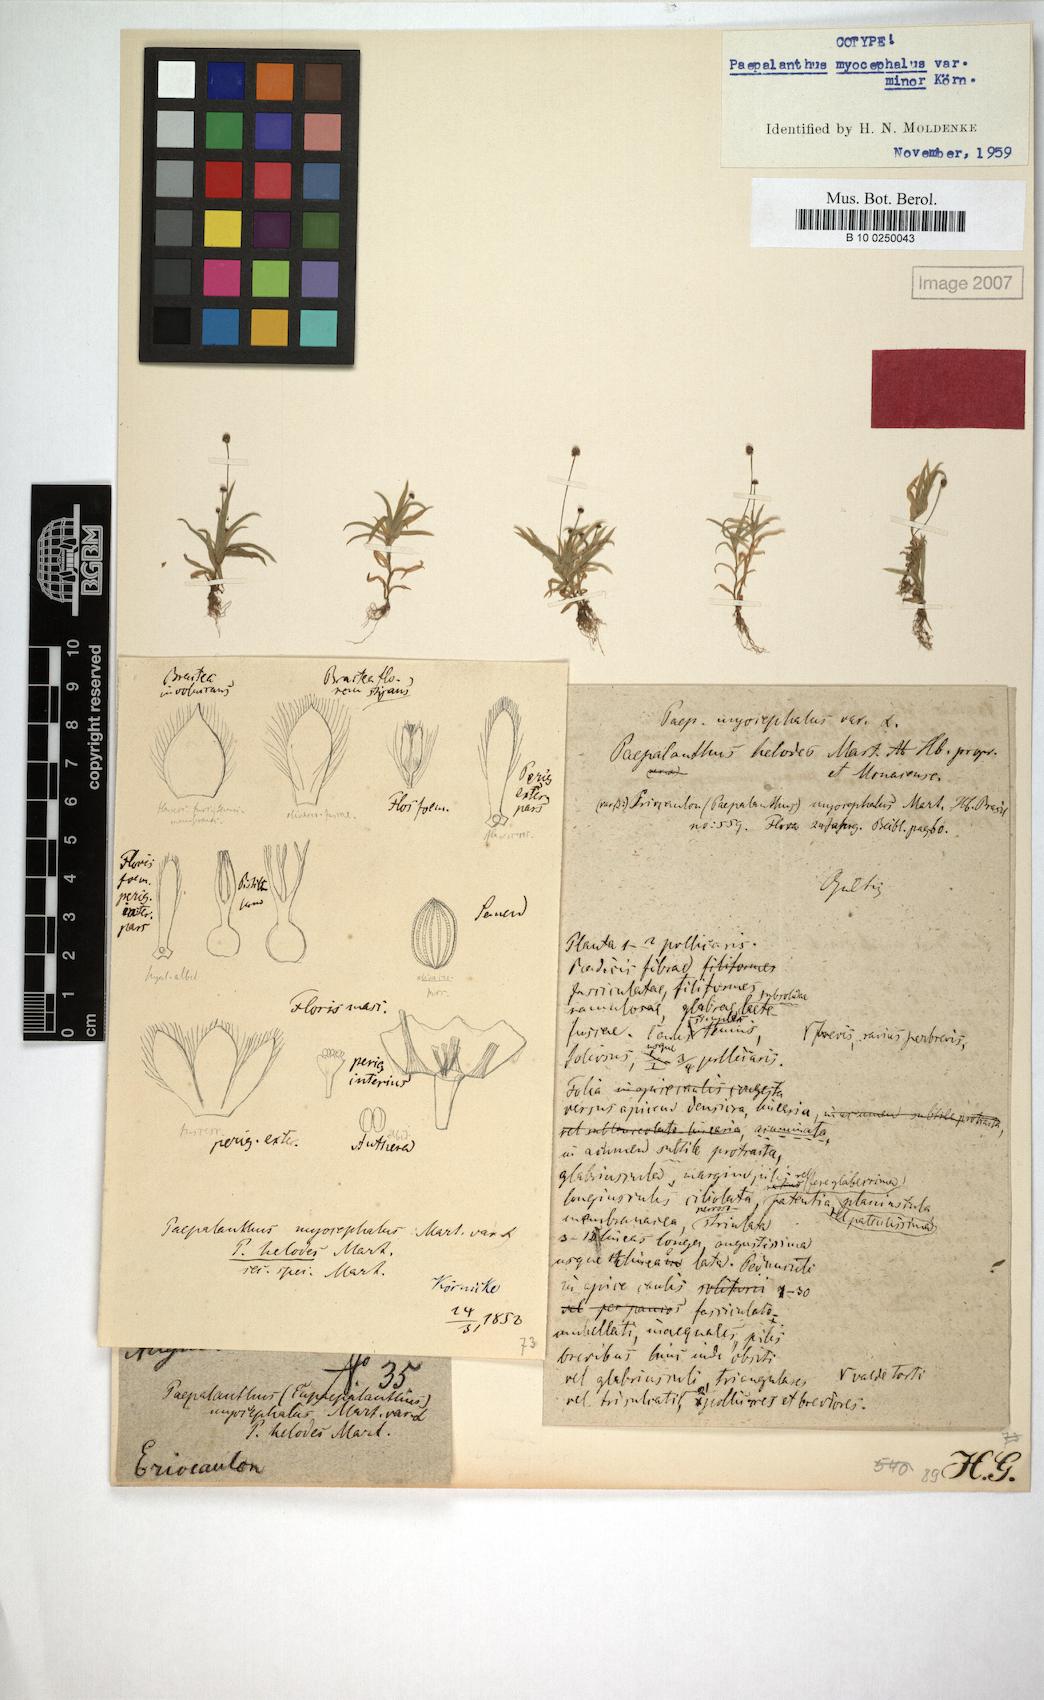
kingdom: Plantae
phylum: Tracheophyta
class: Liliopsida
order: Poales
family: Eriocaulaceae
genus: Paepalanthus
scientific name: Paepalanthus myocephalon
